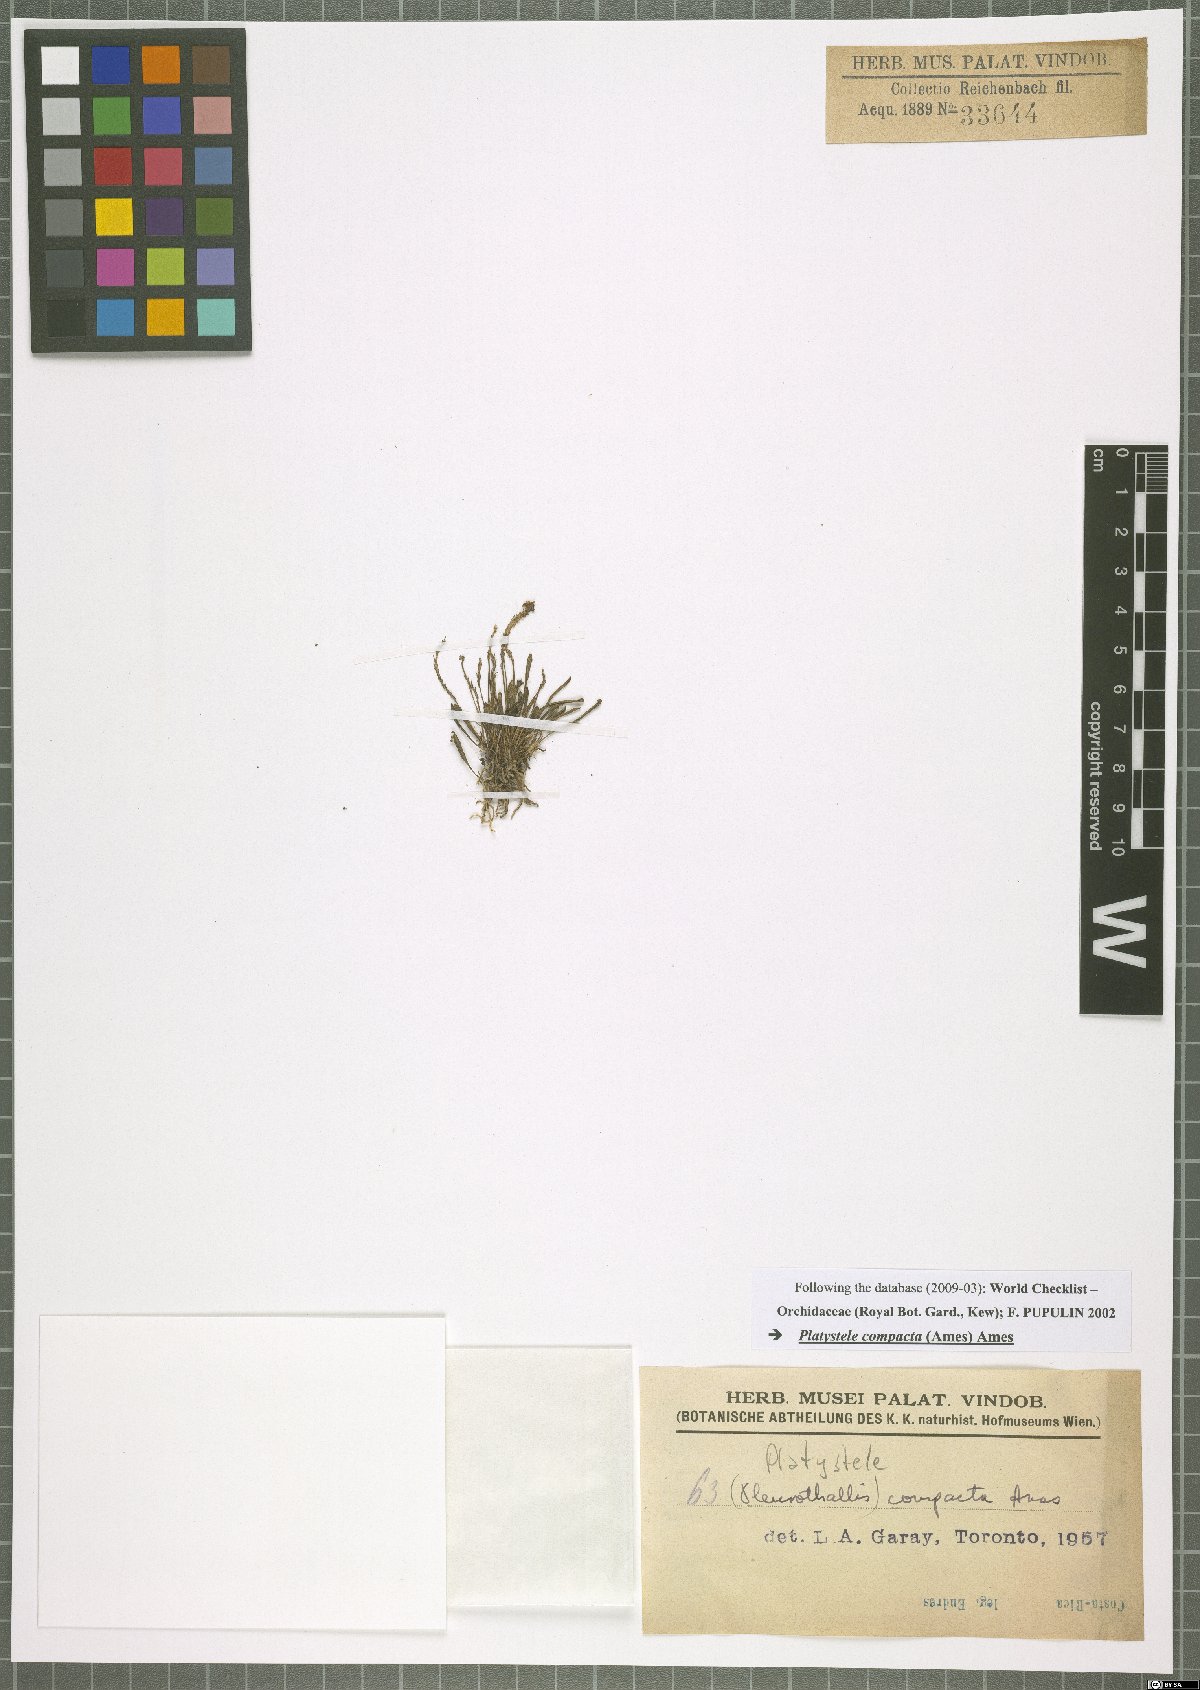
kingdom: Plantae
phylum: Tracheophyta
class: Liliopsida
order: Asparagales
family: Orchidaceae
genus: Platystele
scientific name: Platystele compacta
